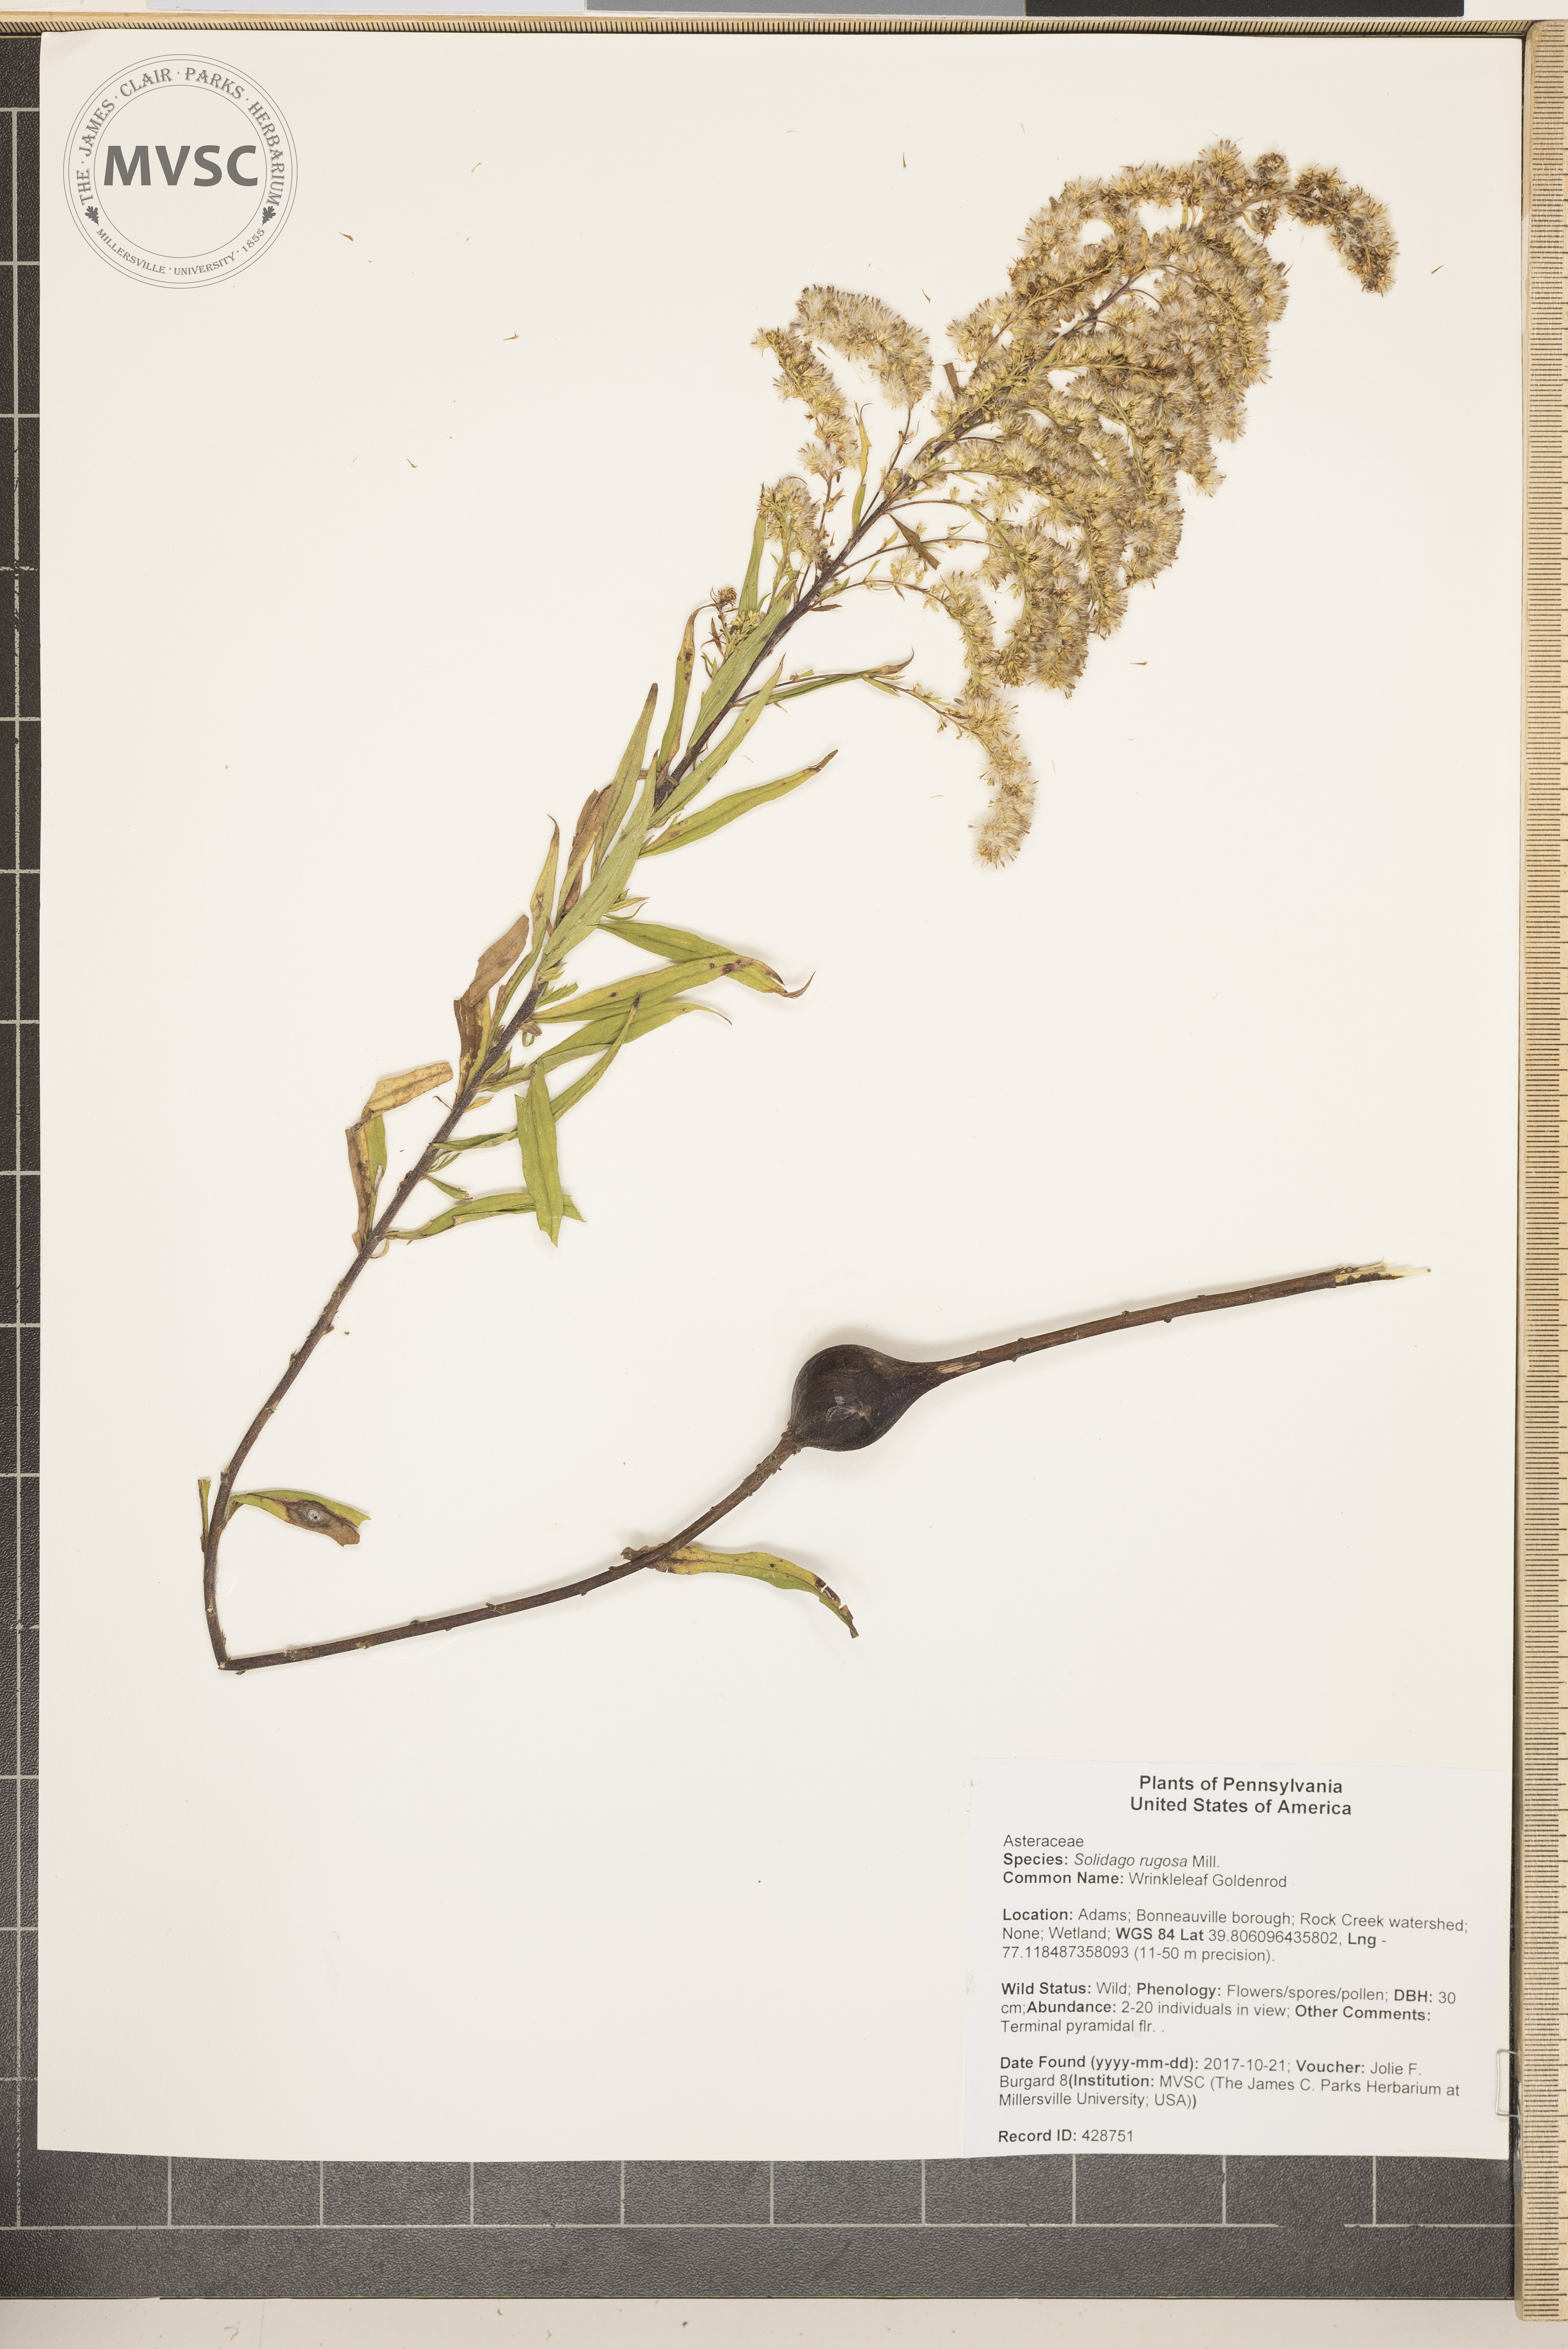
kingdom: Plantae
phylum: Tracheophyta
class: Magnoliopsida
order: Asterales
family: Asteraceae
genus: Solidago
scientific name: Solidago rugosa
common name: Wrinkleleaf Goldenrod
